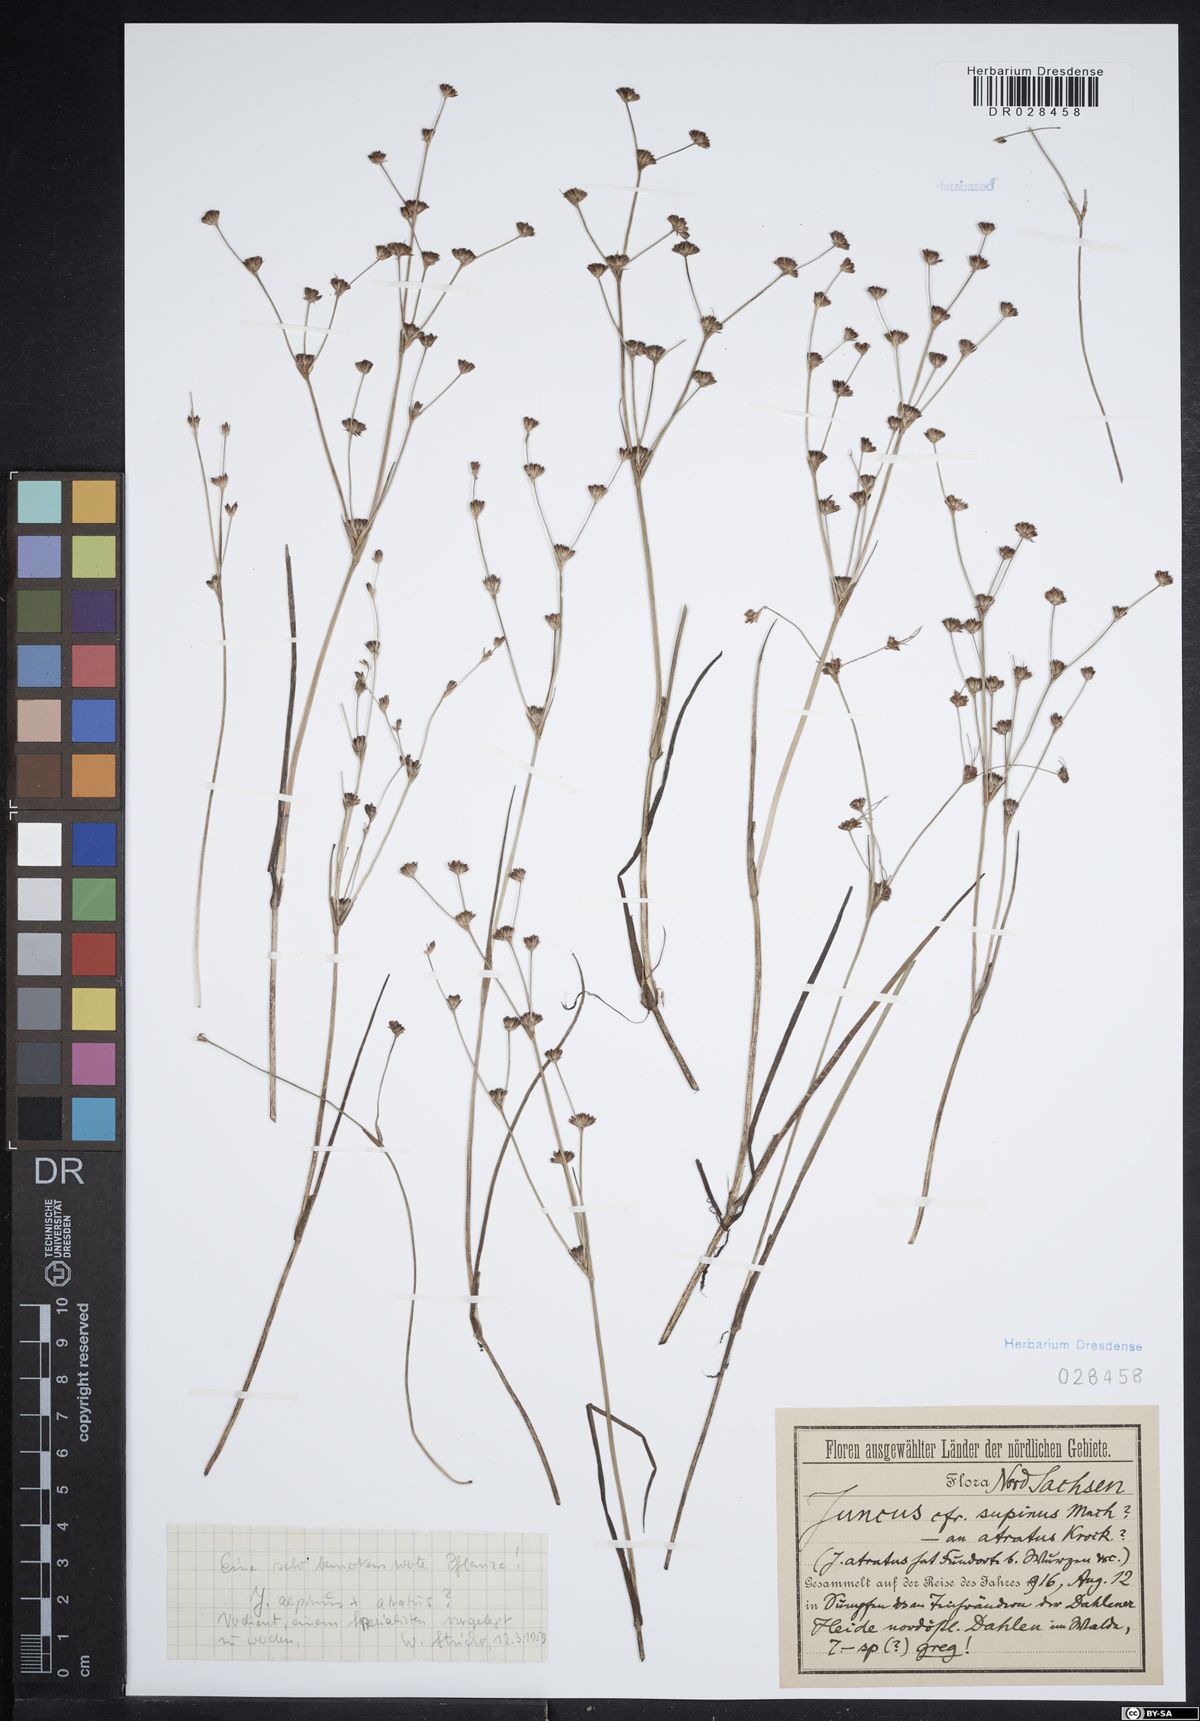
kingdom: Plantae
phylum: Tracheophyta
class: Liliopsida
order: Poales
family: Juncaceae
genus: Juncus
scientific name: Juncus atratus
